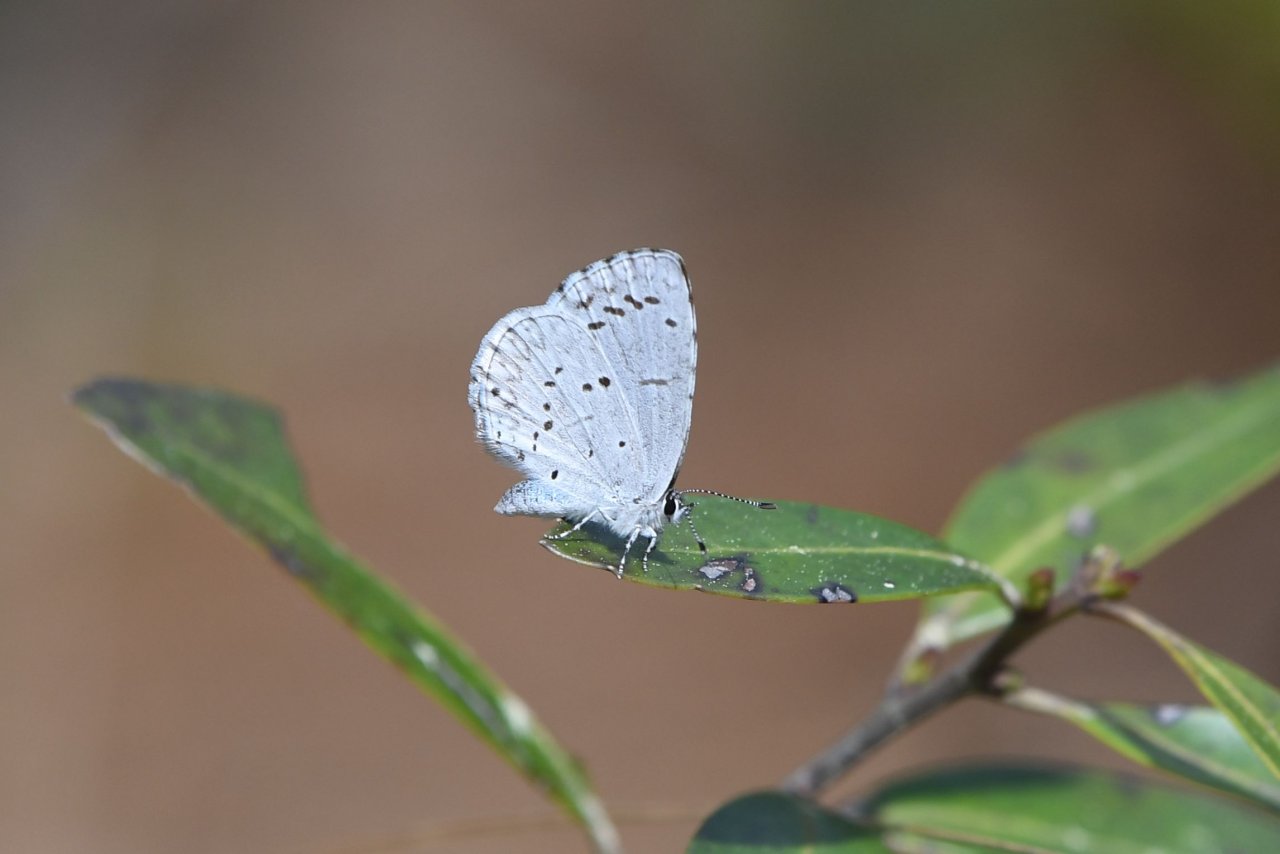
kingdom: Animalia
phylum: Arthropoda
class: Insecta
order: Lepidoptera
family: Lycaenidae
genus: Celastrina
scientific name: Celastrina idella
